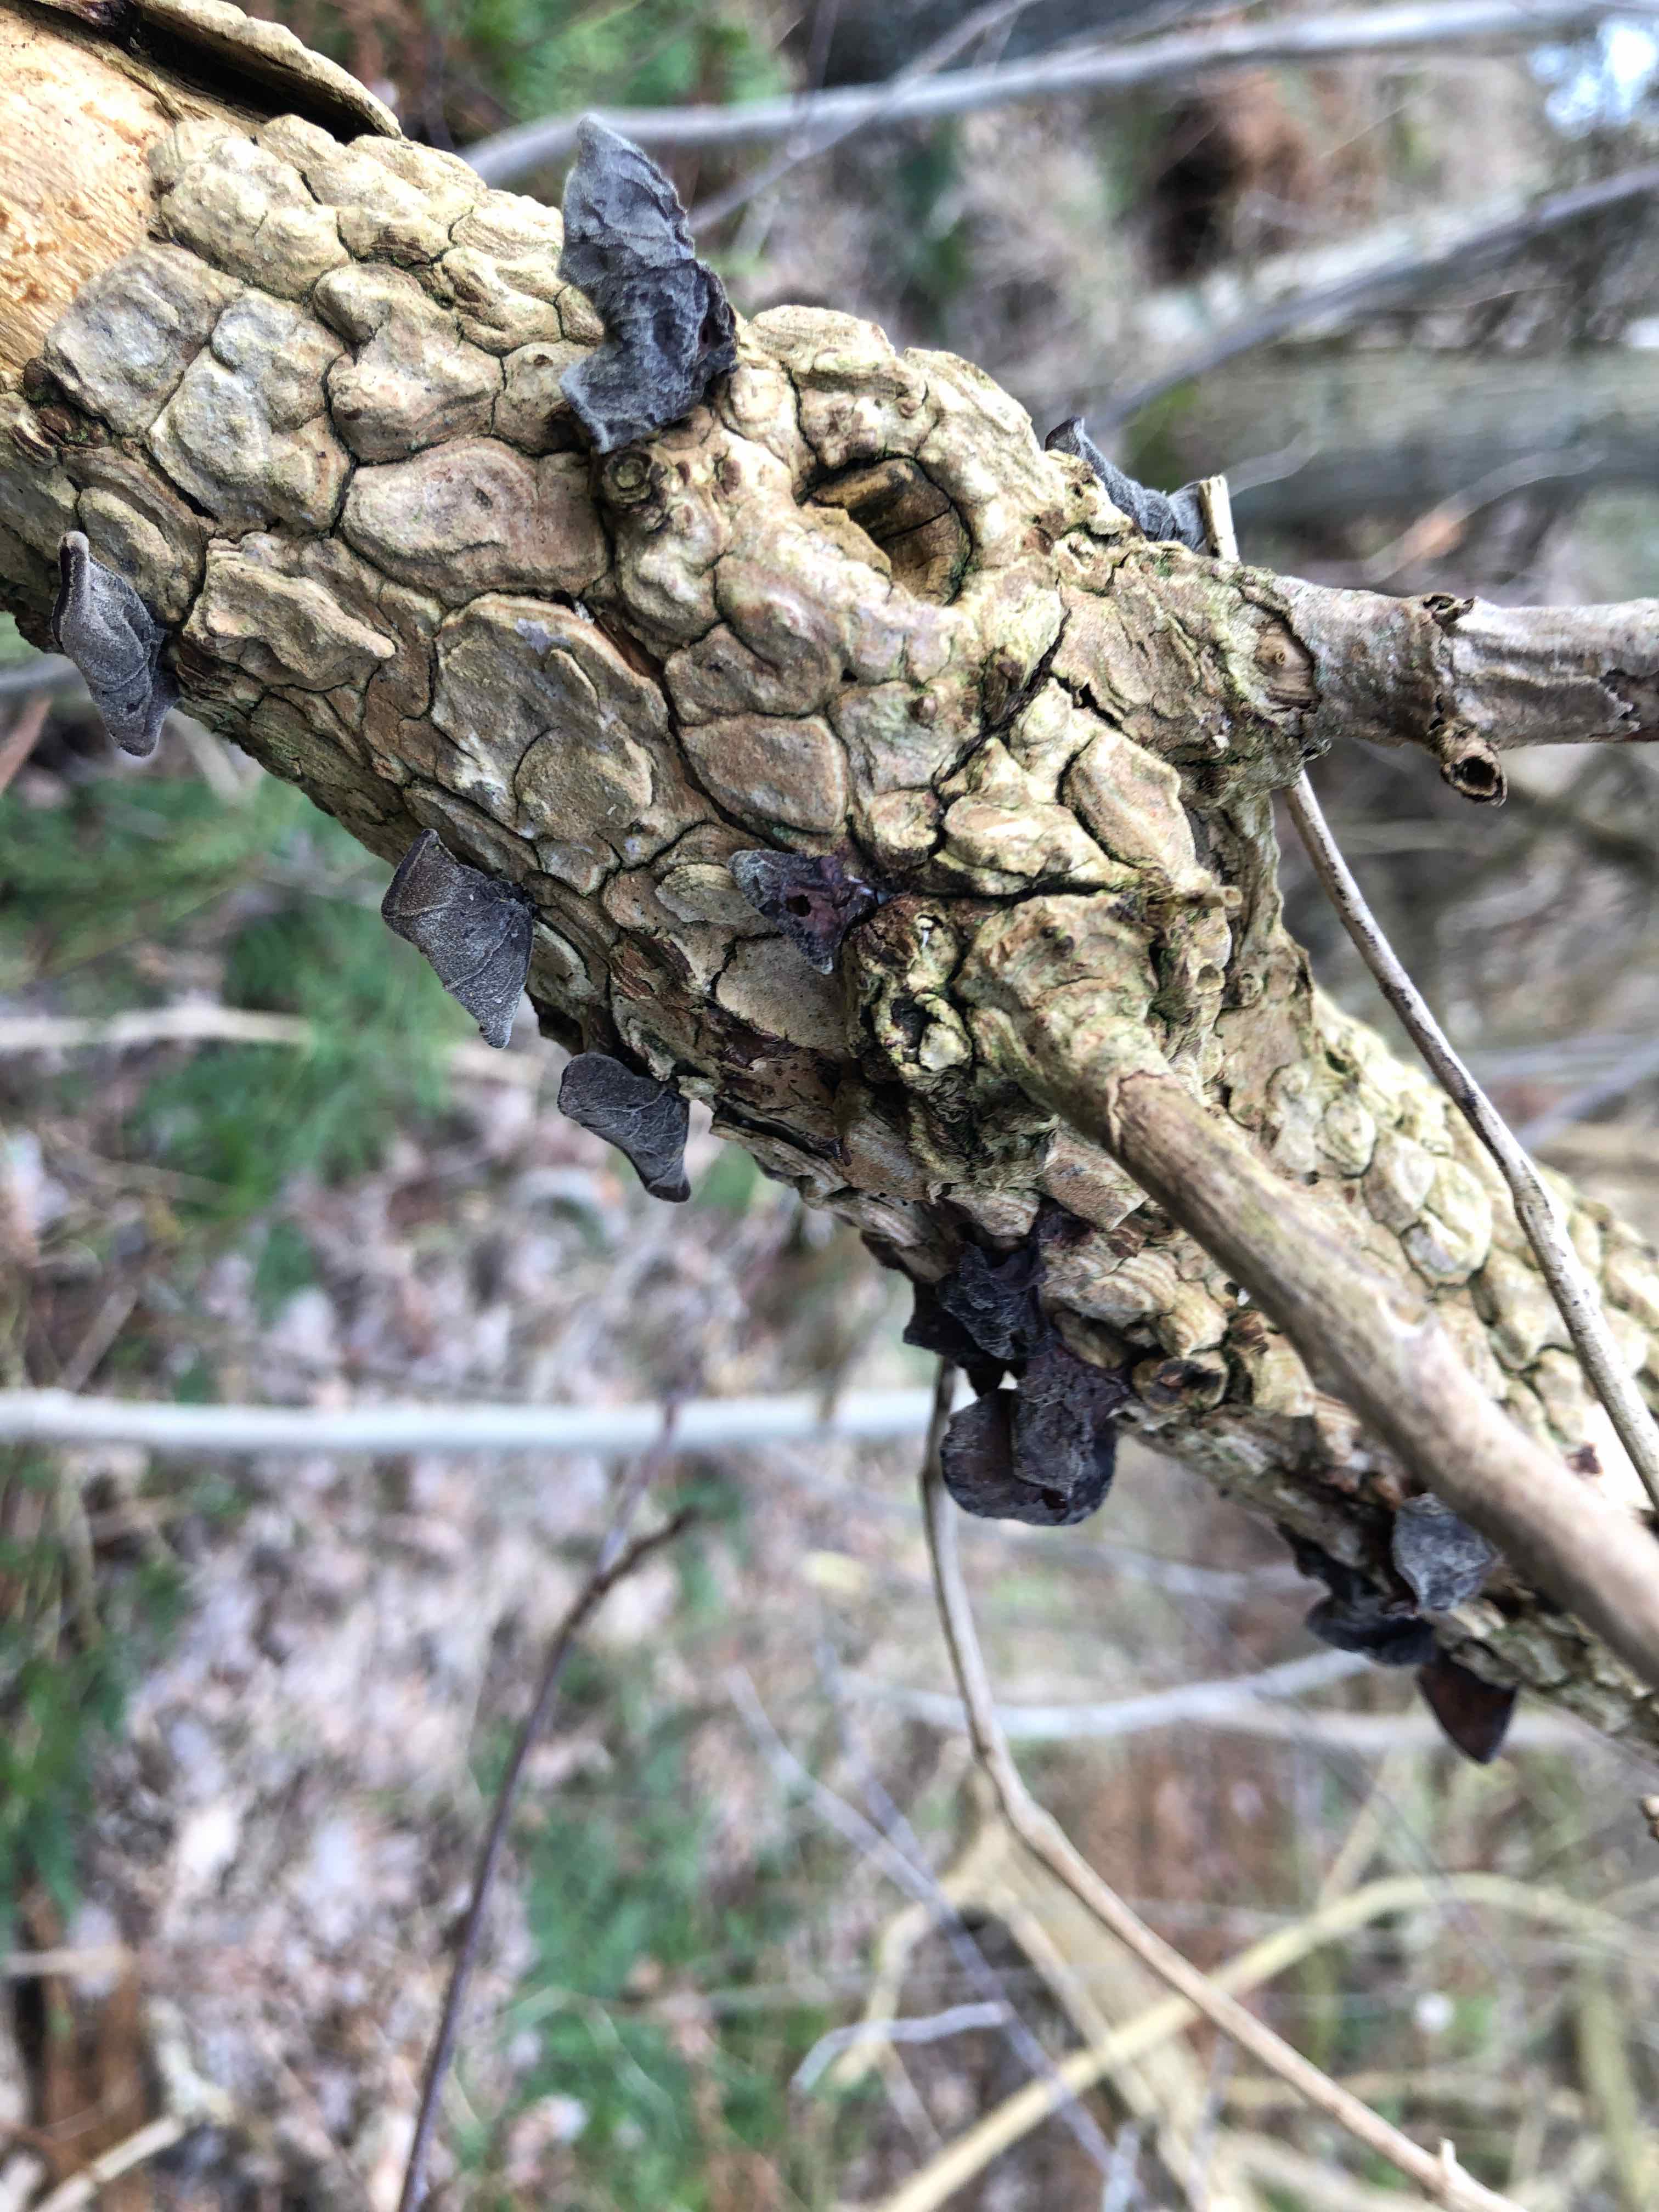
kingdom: Fungi
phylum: Basidiomycota
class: Agaricomycetes
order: Auriculariales
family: Auriculariaceae
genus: Auricularia
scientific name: Auricularia auricula-judae
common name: almindelig judasøre
